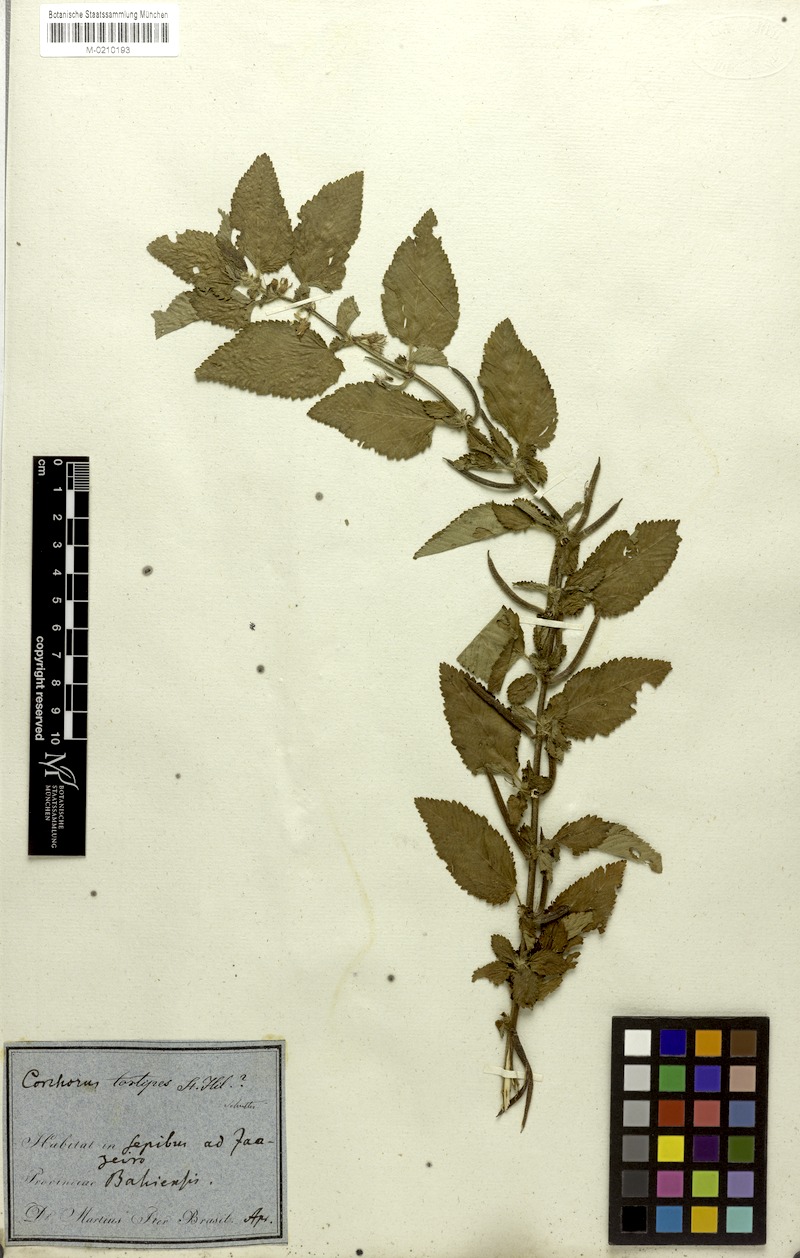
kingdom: Plantae
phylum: Tracheophyta
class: Magnoliopsida
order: Malvales
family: Malvaceae
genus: Corchorus
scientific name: Corchorus hirtus
